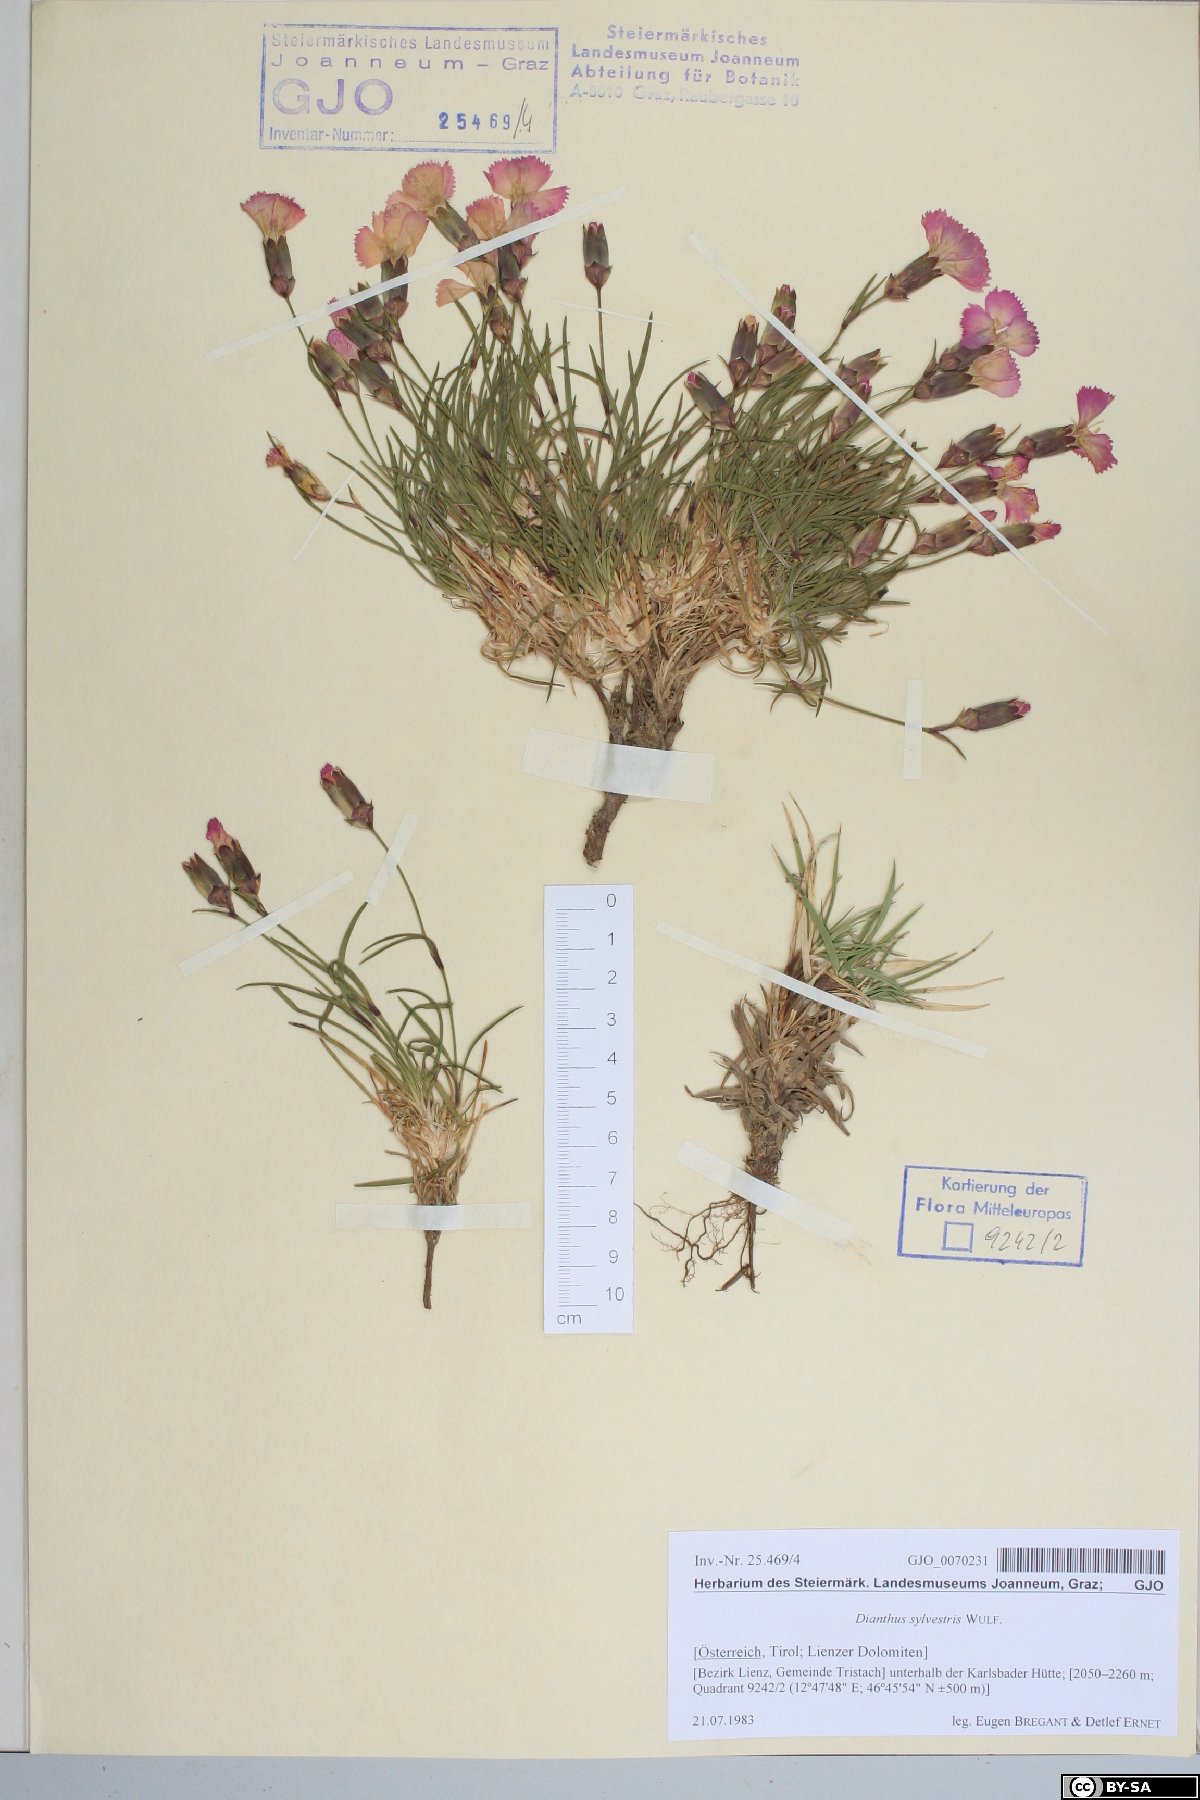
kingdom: Plantae
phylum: Tracheophyta
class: Magnoliopsida
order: Caryophyllales
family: Caryophyllaceae
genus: Dianthus
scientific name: Dianthus sylvestris
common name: Wood pink
